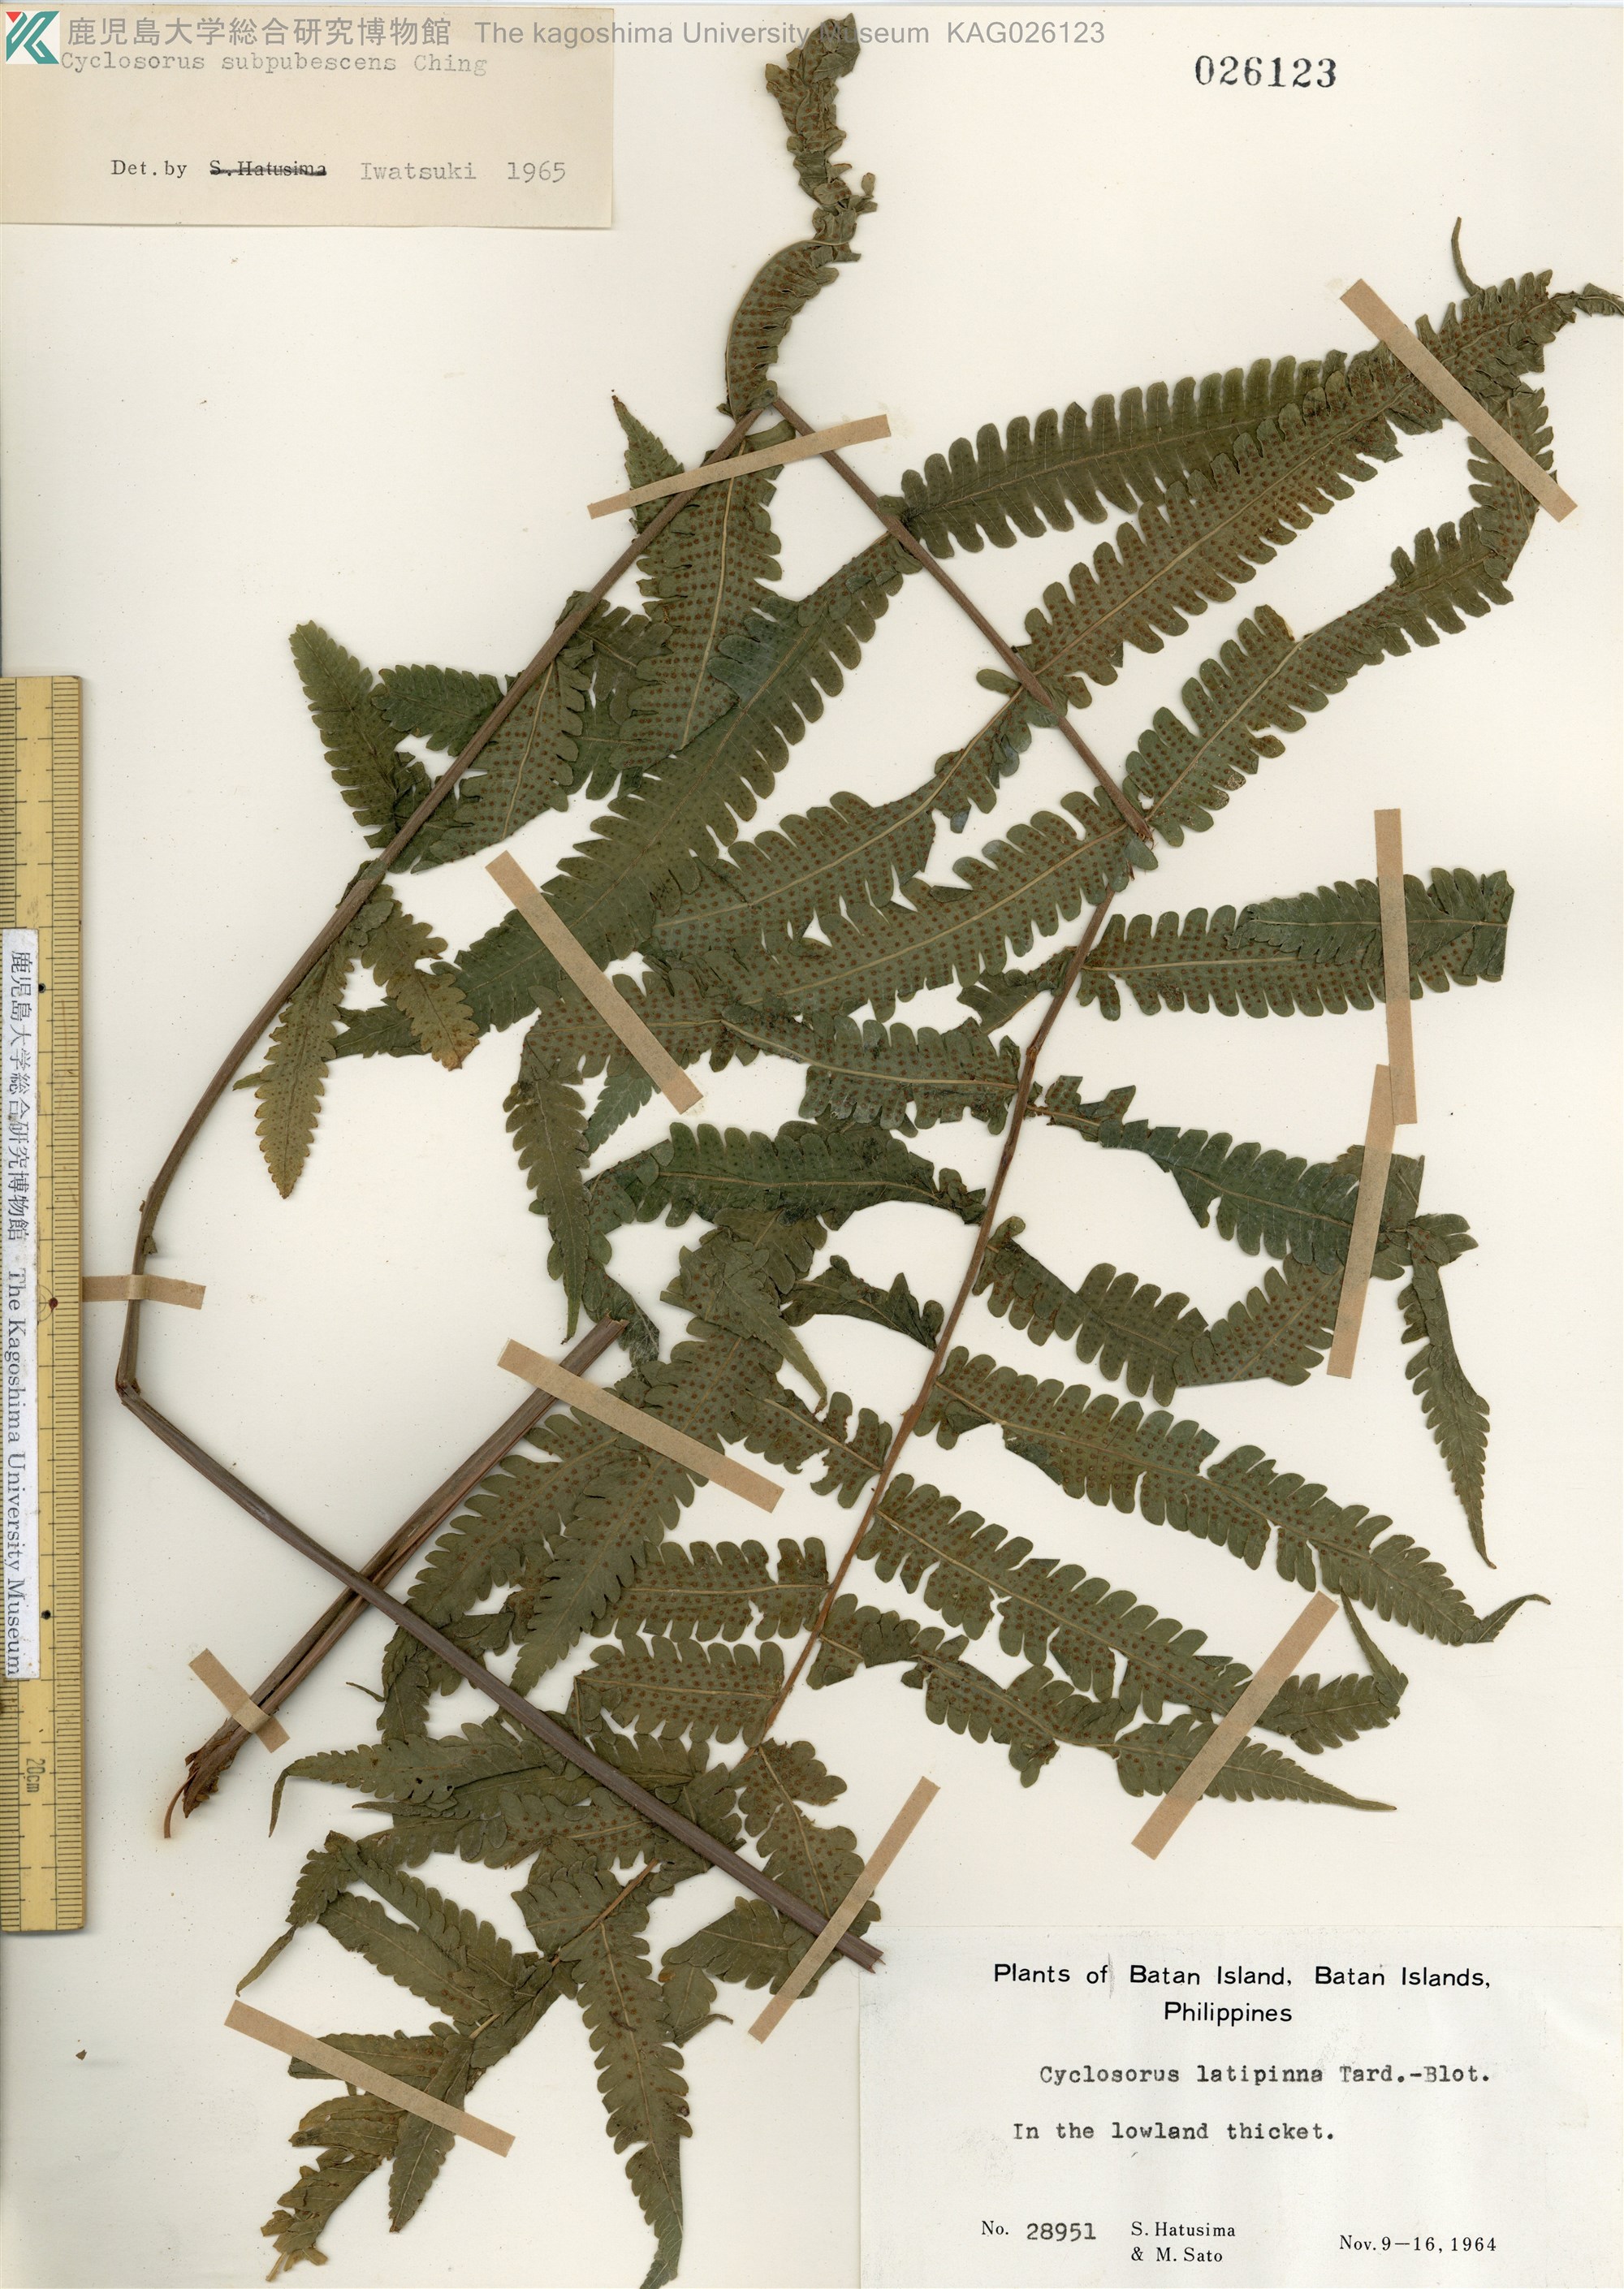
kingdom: Plantae
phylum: Tracheophyta
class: Polypodiopsida
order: Polypodiales
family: Thelypteridaceae
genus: Christella
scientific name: Christella latipinna
